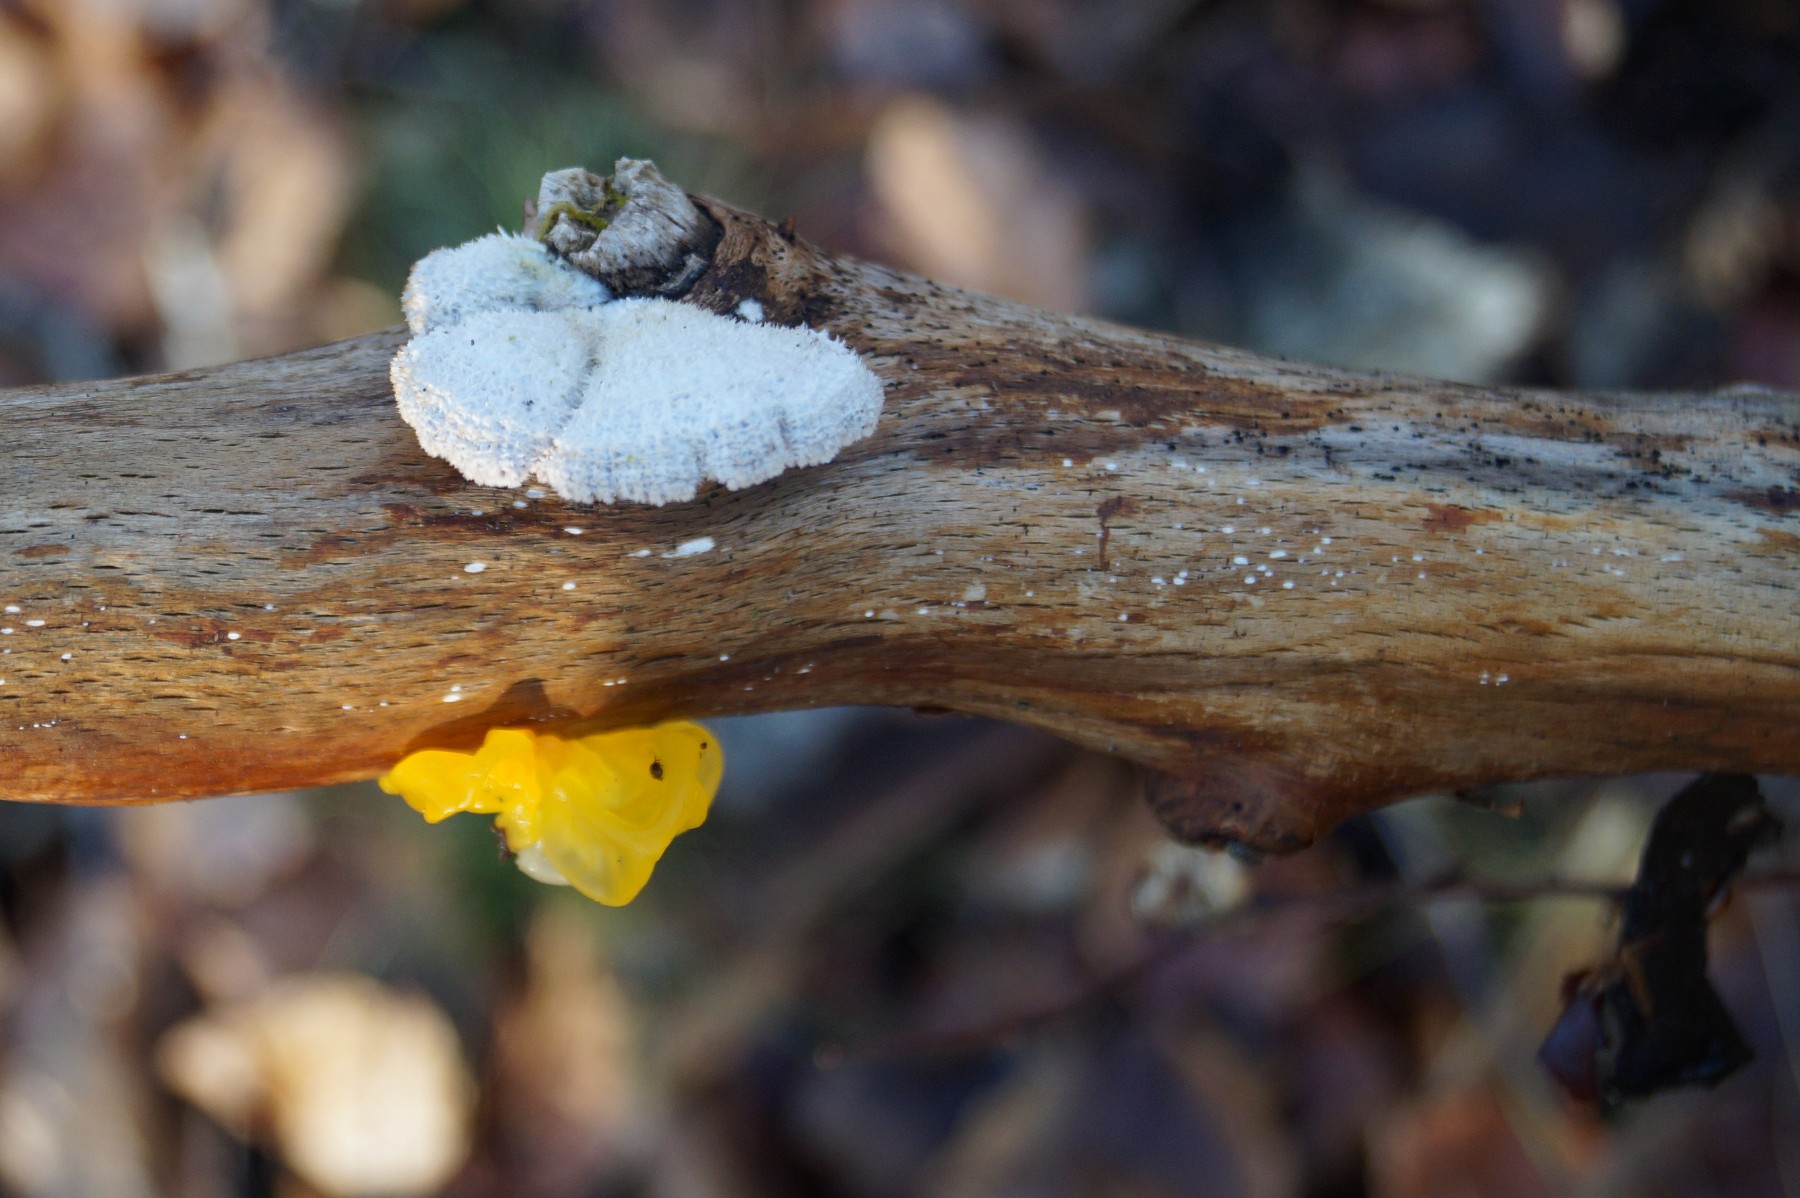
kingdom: Fungi
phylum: Basidiomycota
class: Tremellomycetes
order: Tremellales
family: Tremellaceae
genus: Tremella
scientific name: Tremella mesenterica
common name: gul bævresvamp
